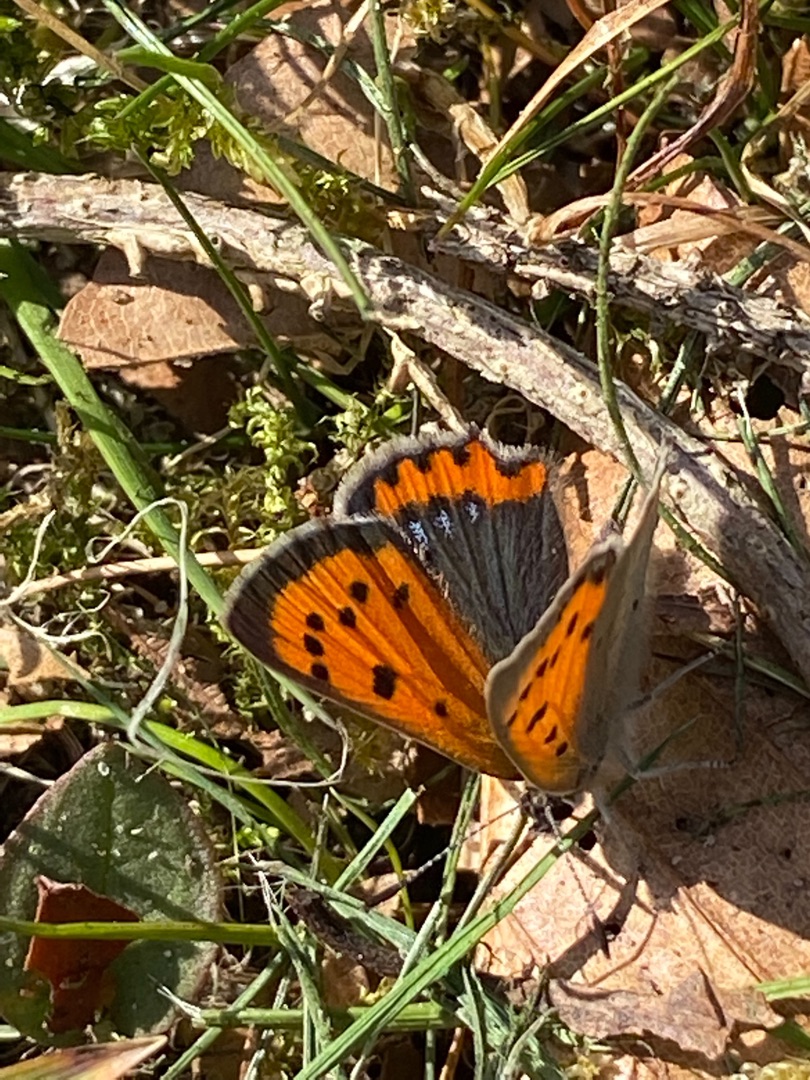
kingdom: Animalia
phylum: Arthropoda
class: Insecta
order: Lepidoptera
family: Lycaenidae
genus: Lycaena
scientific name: Lycaena phlaeas
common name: Lille ildfugl
